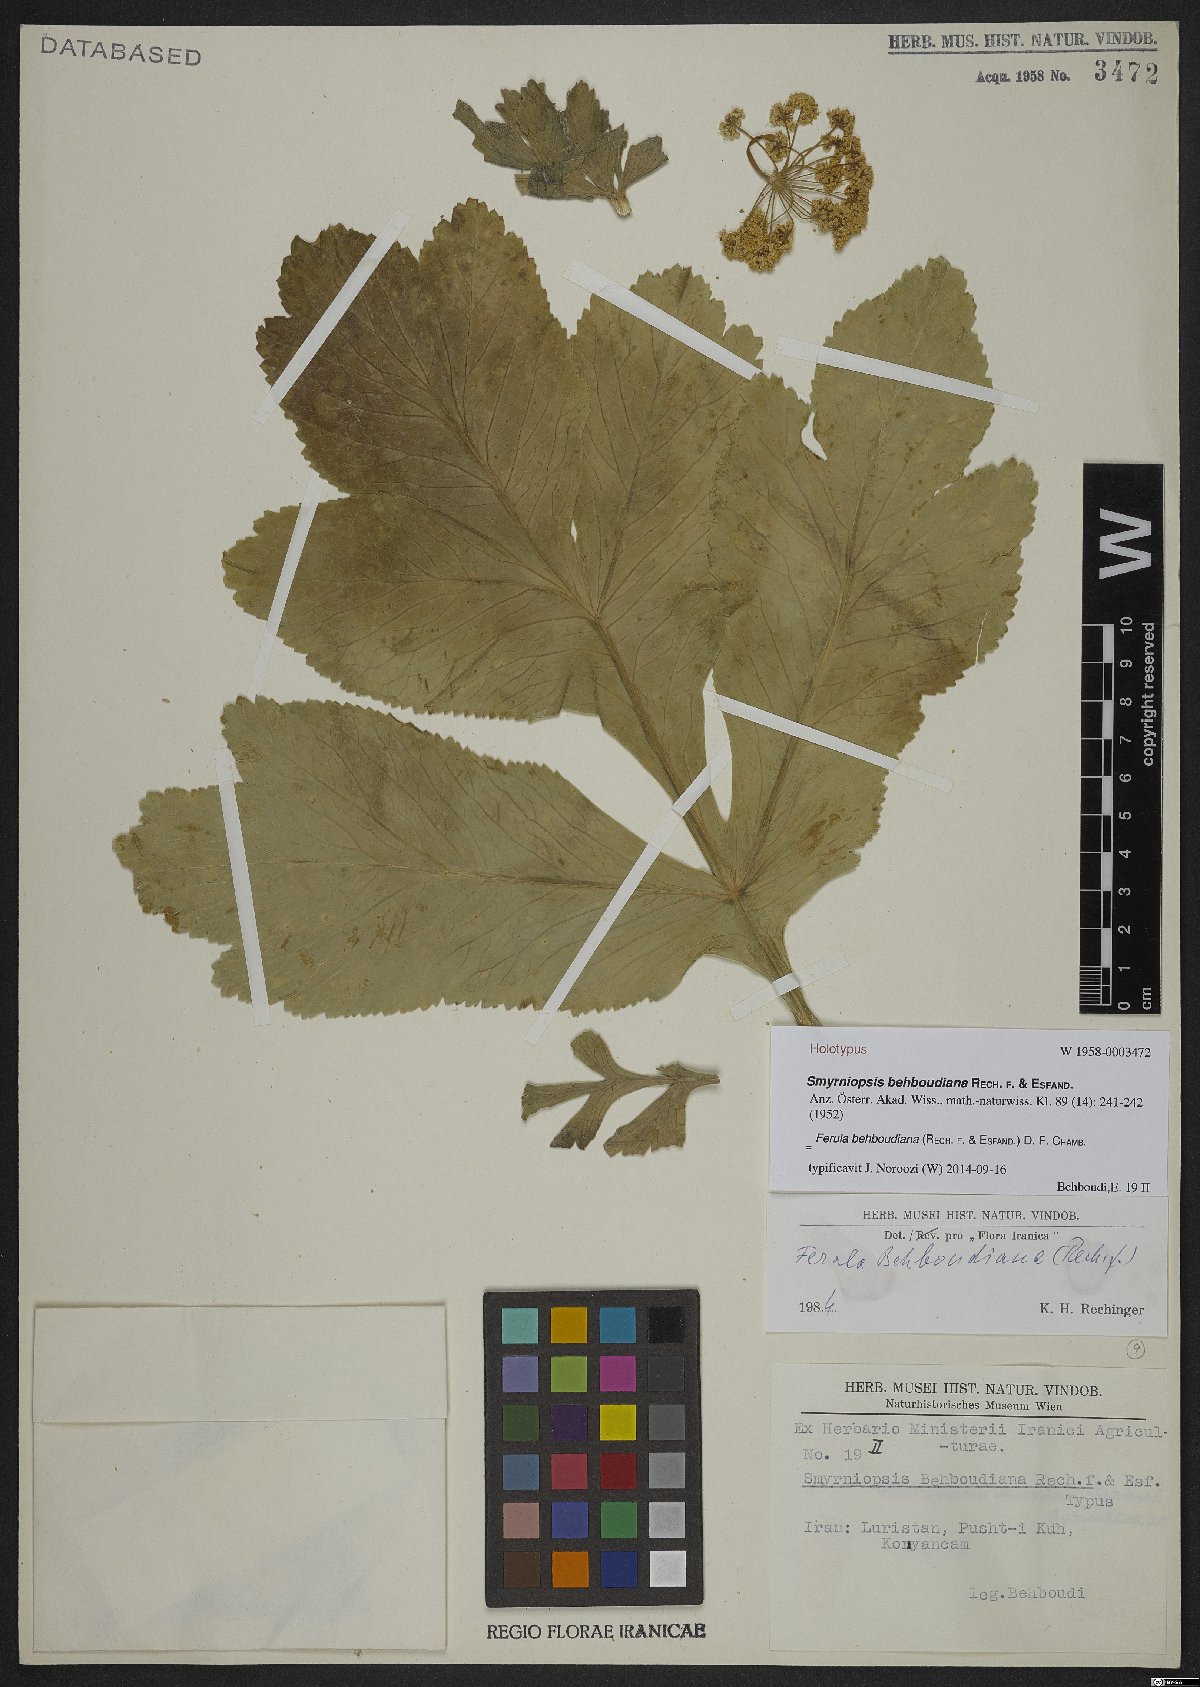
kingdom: Plantae
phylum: Tracheophyta
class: Magnoliopsida
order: Apiales
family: Apiaceae
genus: Ferula
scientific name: Ferula behboudiana
